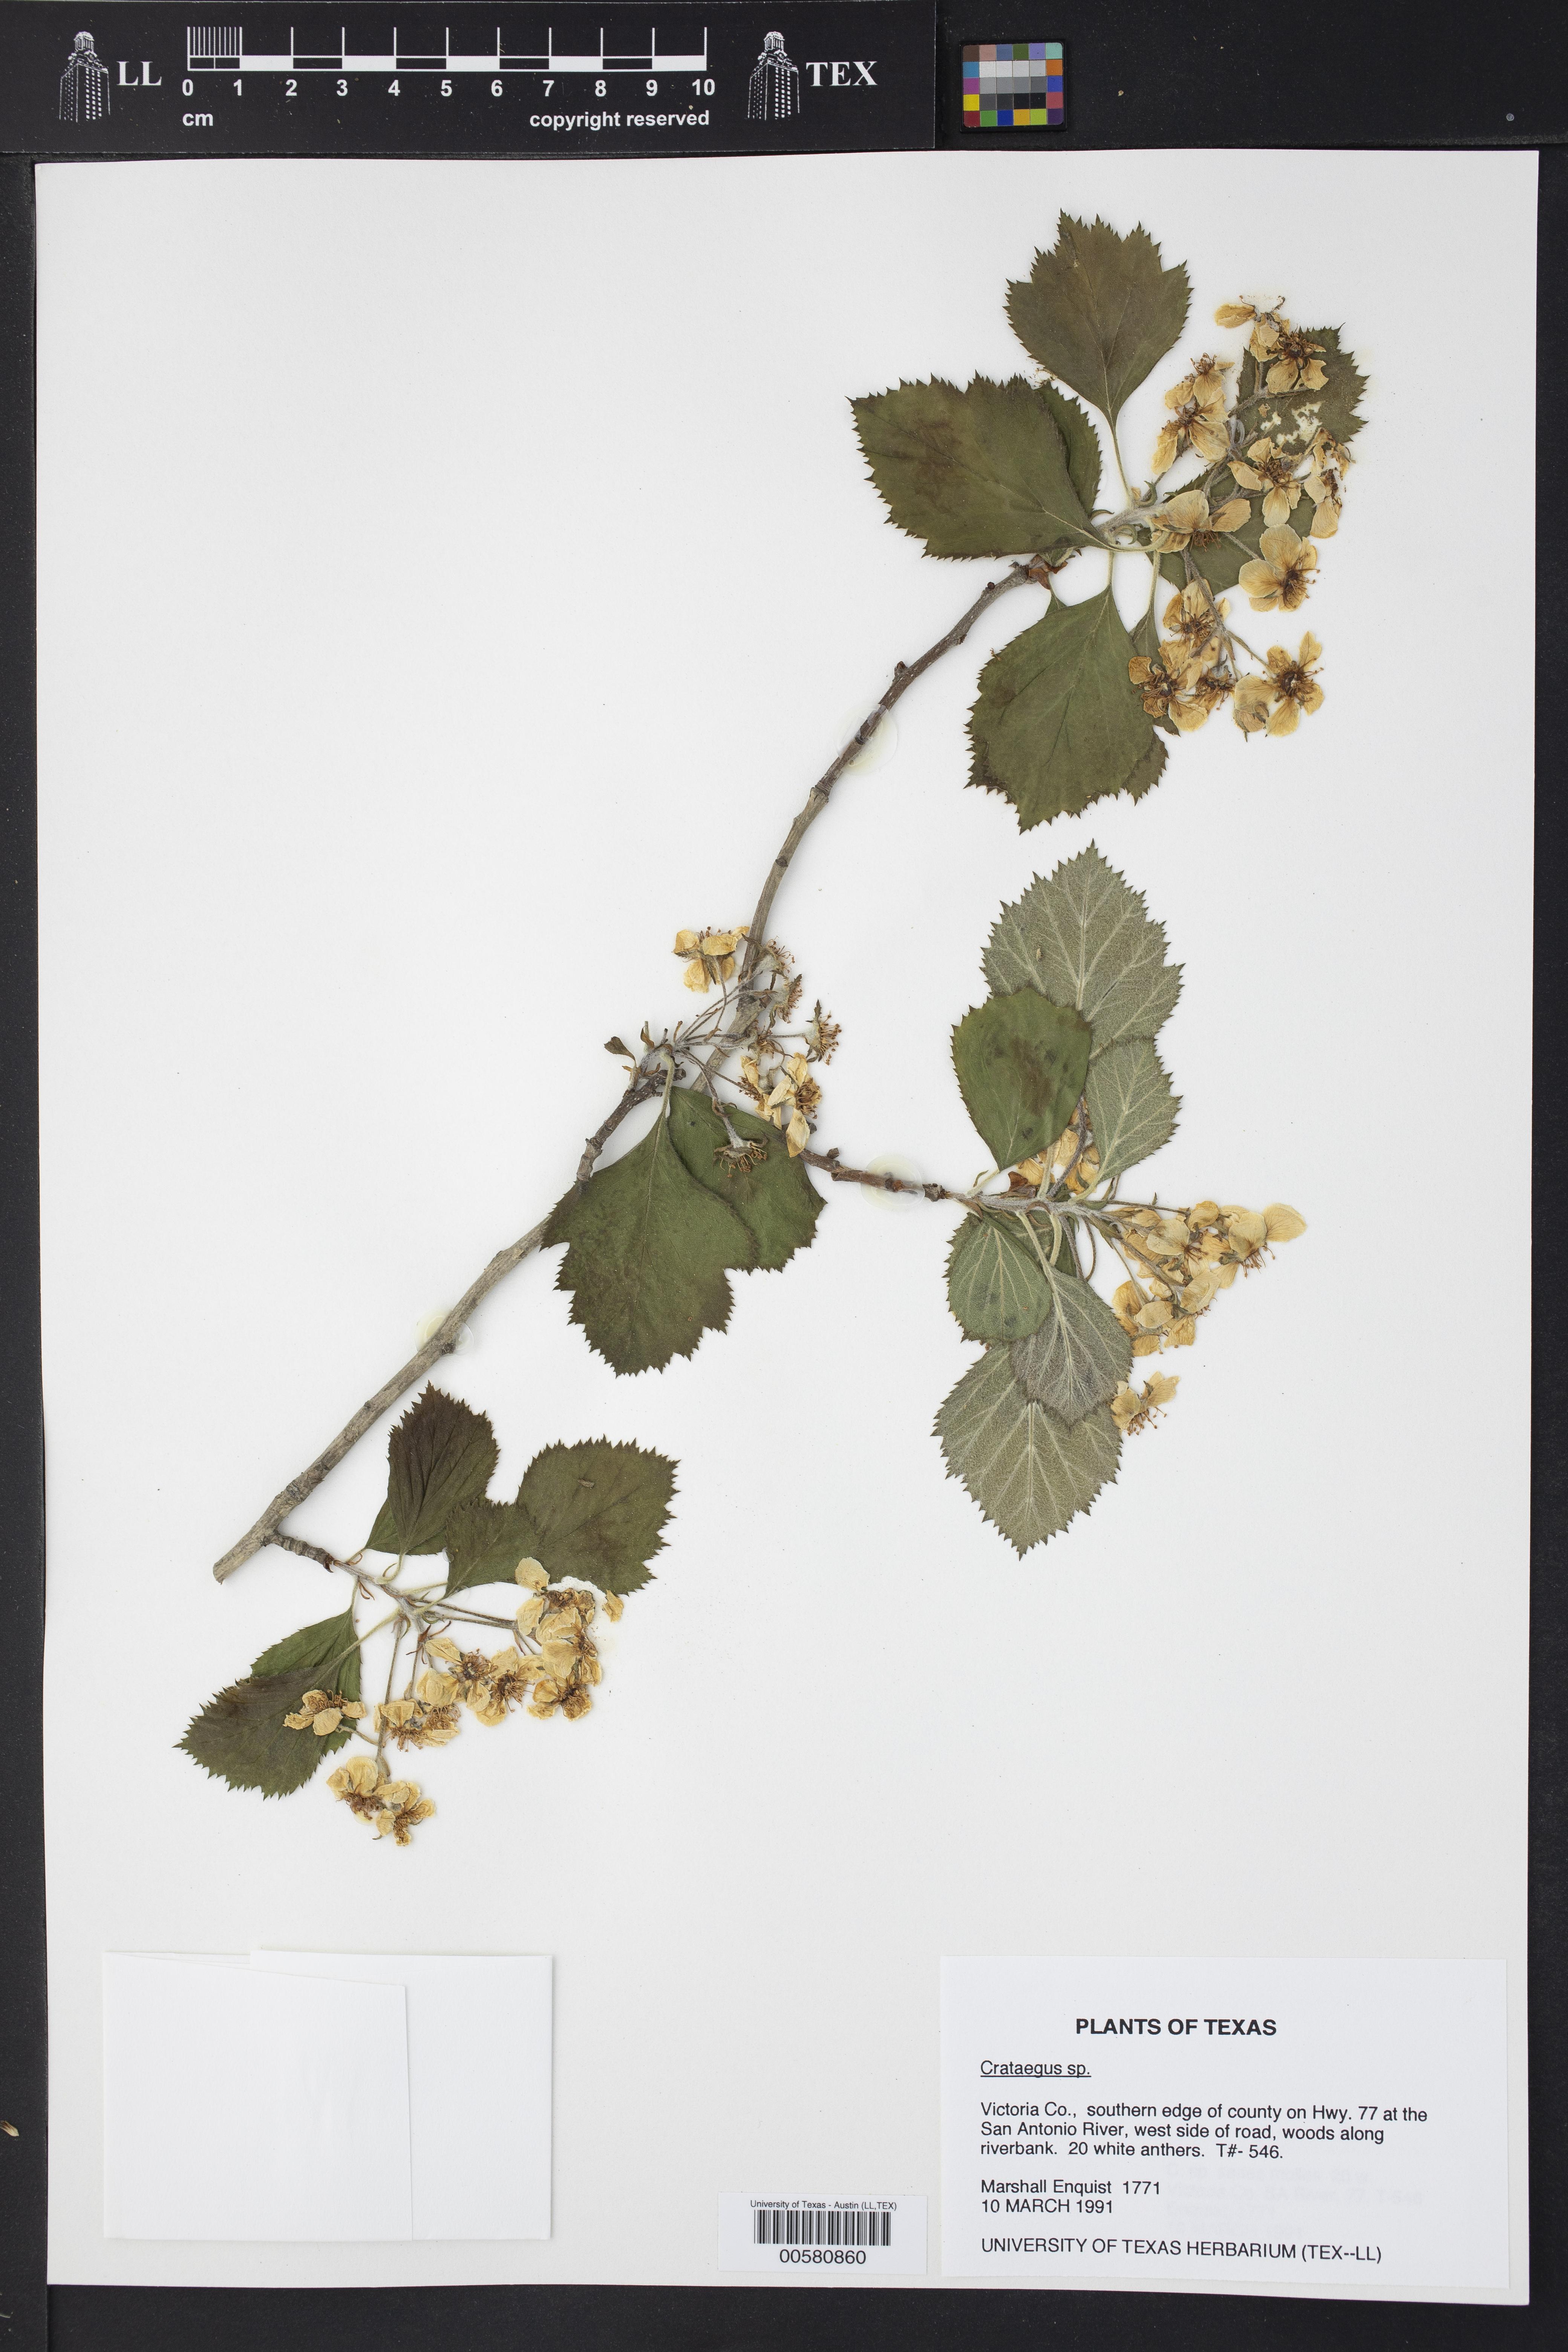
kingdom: Plantae
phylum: Tracheophyta
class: Magnoliopsida
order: Rosales
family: Rosaceae
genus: Crataegus
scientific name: Crataegus
